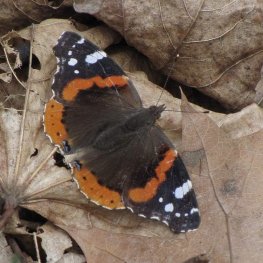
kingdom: Animalia
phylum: Arthropoda
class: Insecta
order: Lepidoptera
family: Nymphalidae
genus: Vanessa
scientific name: Vanessa atalanta
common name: Red Admiral
